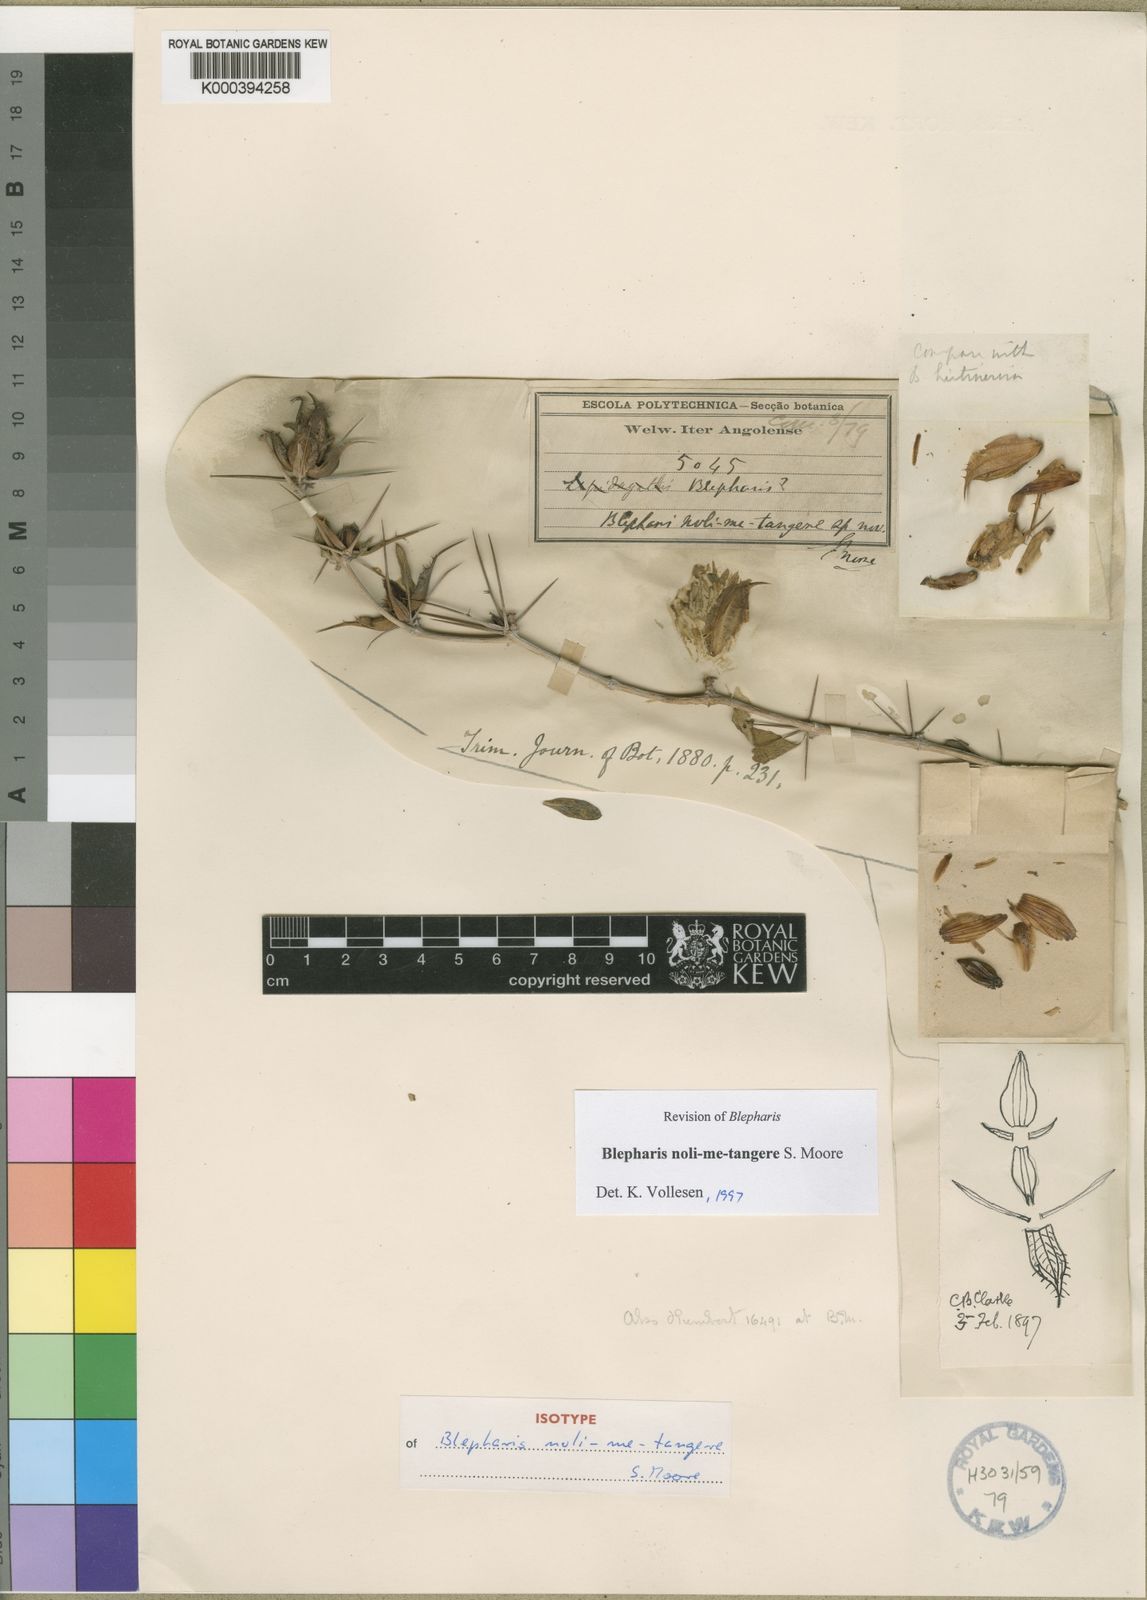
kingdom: Plantae
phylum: Tracheophyta
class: Magnoliopsida
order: Lamiales
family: Acanthaceae
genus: Blepharis
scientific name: Blepharis noli-me-tangere
